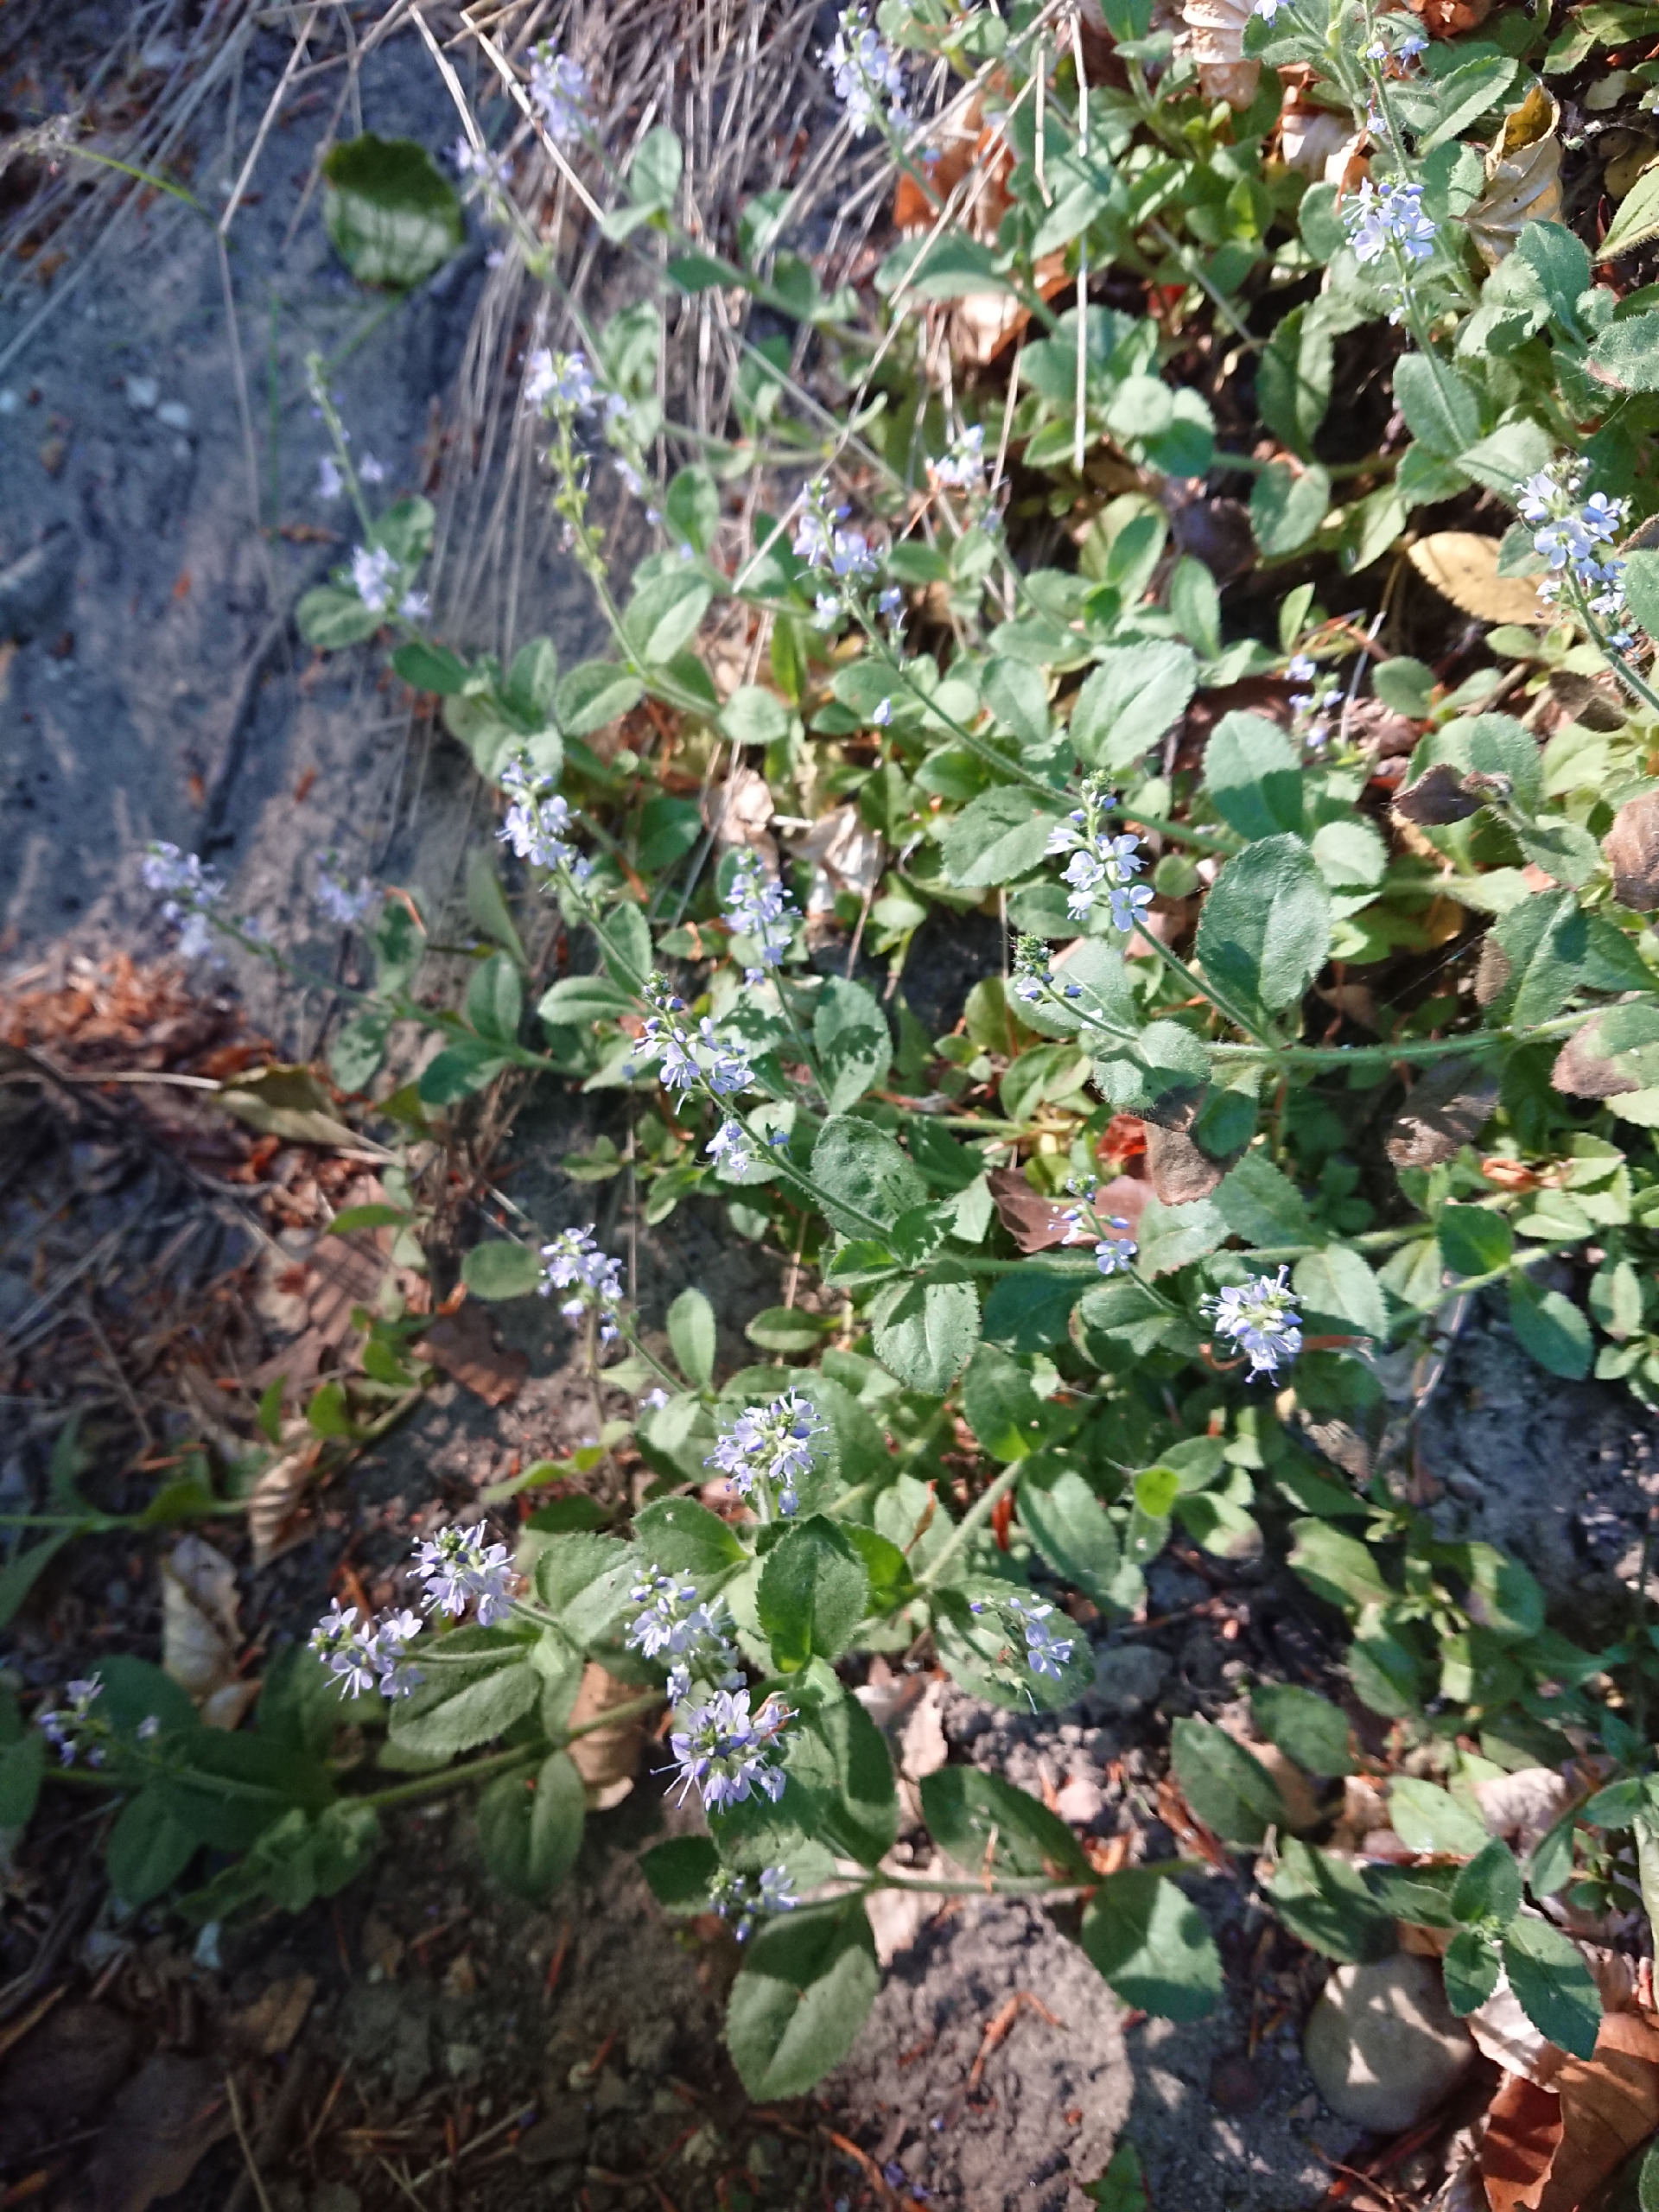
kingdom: Plantae
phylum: Tracheophyta
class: Magnoliopsida
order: Lamiales
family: Plantaginaceae
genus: Veronica
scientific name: Veronica officinalis
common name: Læge-ærenpris
